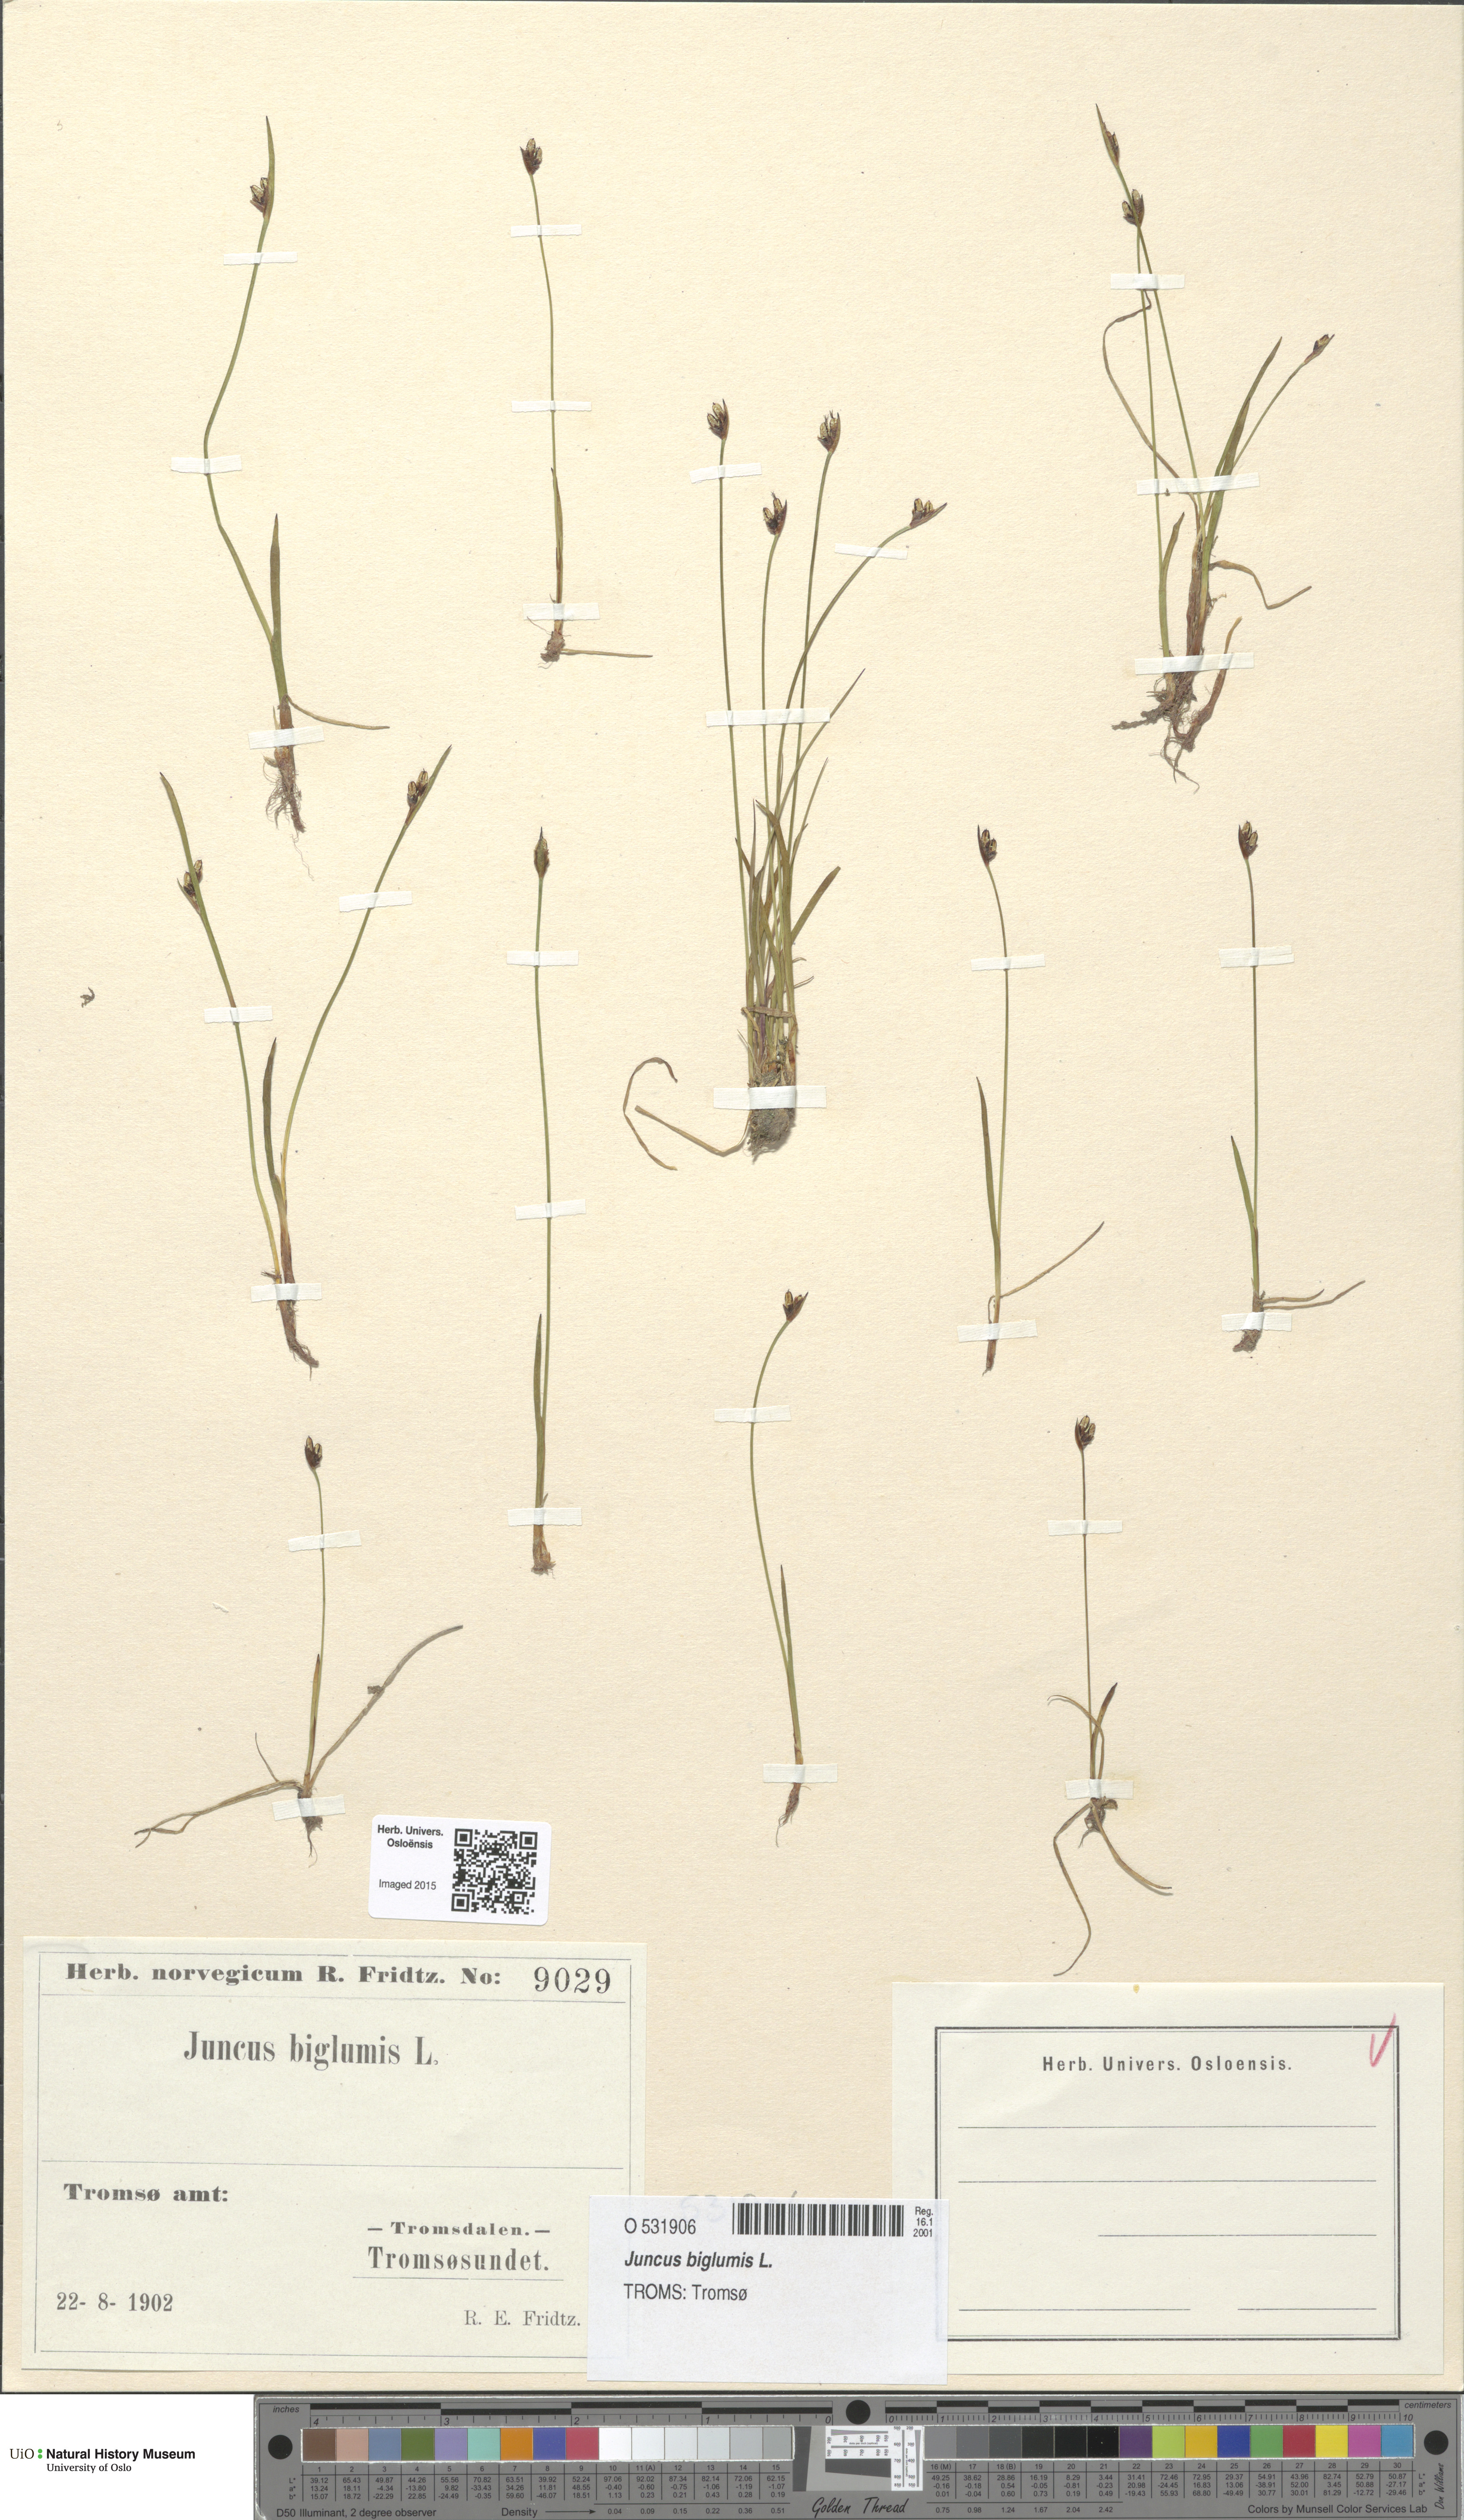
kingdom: Plantae
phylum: Tracheophyta
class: Liliopsida
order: Poales
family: Juncaceae
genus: Juncus
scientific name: Juncus biglumis
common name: Two-flowered rush
